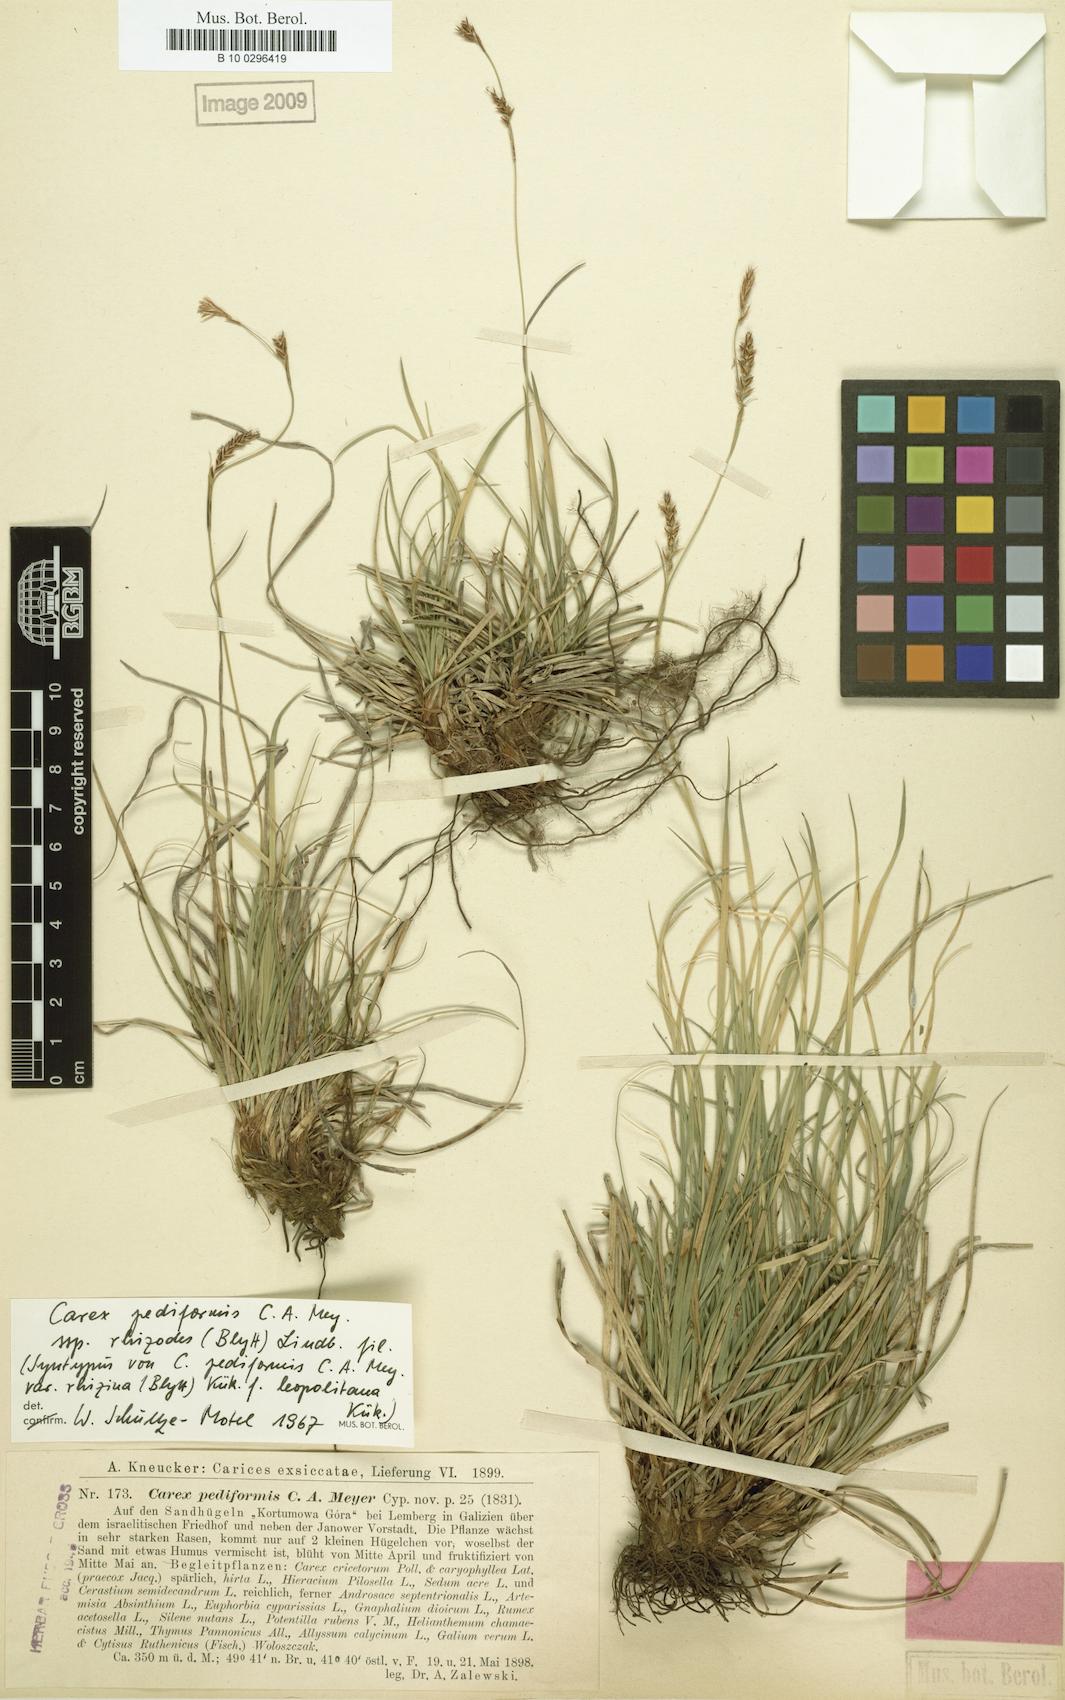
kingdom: Plantae
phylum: Tracheophyta
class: Liliopsida
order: Poales
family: Cyperaceae
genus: Carex
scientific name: Carex rhizina
